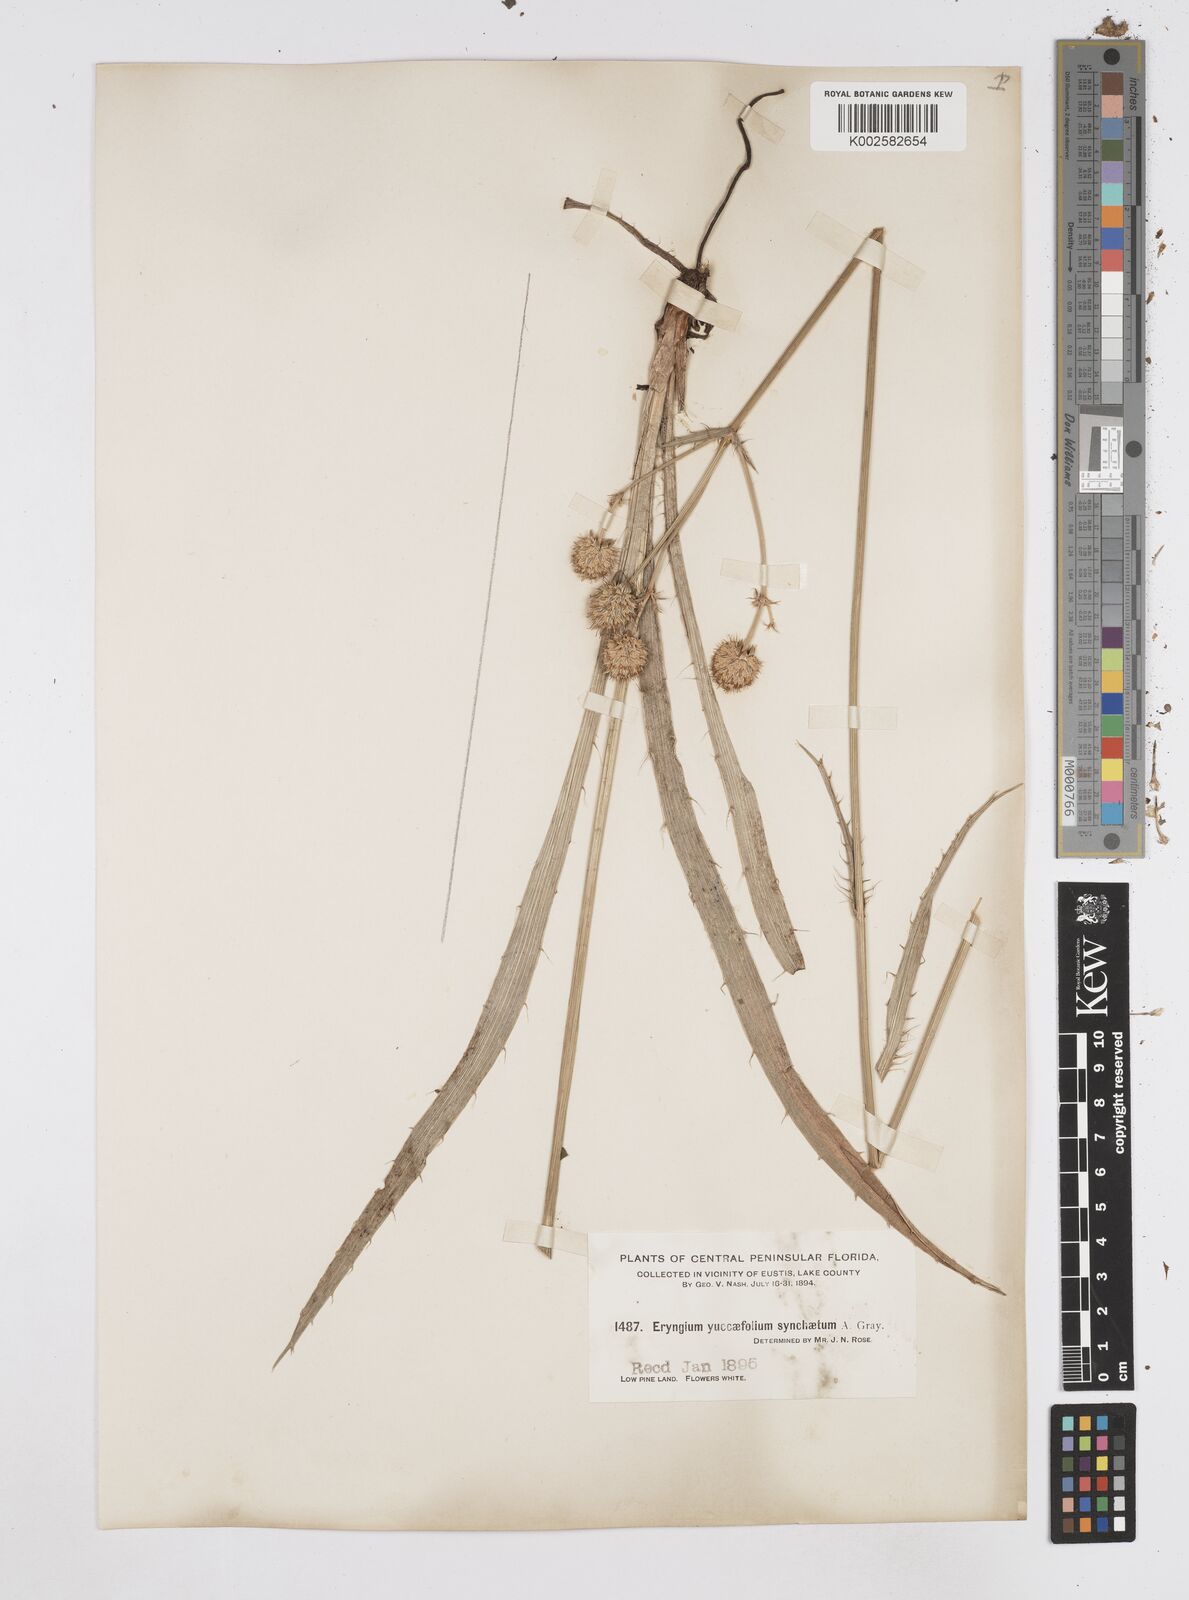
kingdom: Plantae
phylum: Tracheophyta
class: Magnoliopsida
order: Apiales
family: Apiaceae
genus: Eryngium
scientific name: Eryngium yuccifolium
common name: Button eryngo
